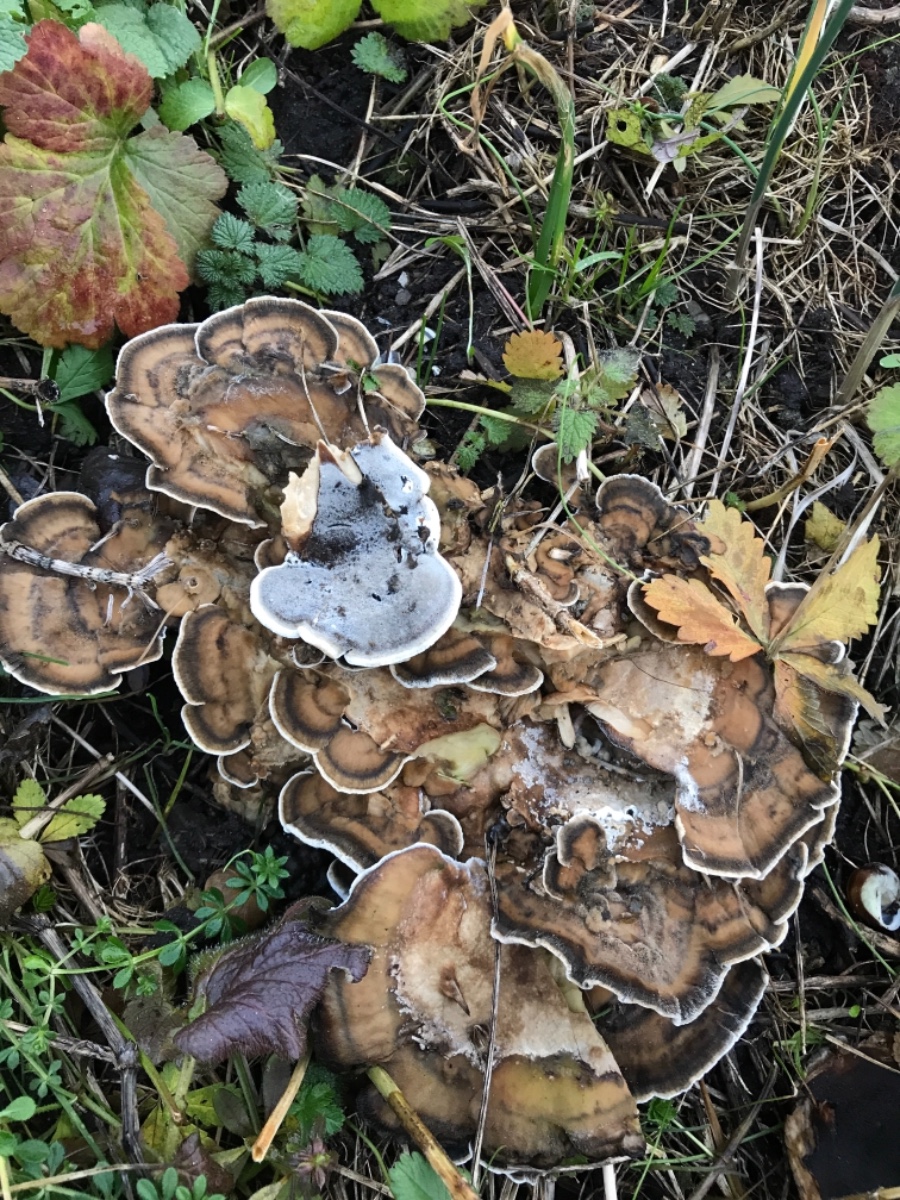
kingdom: Fungi
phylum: Basidiomycota
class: Agaricomycetes
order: Polyporales
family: Phanerochaetaceae
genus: Bjerkandera
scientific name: Bjerkandera adusta
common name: sveden sodporesvamp
